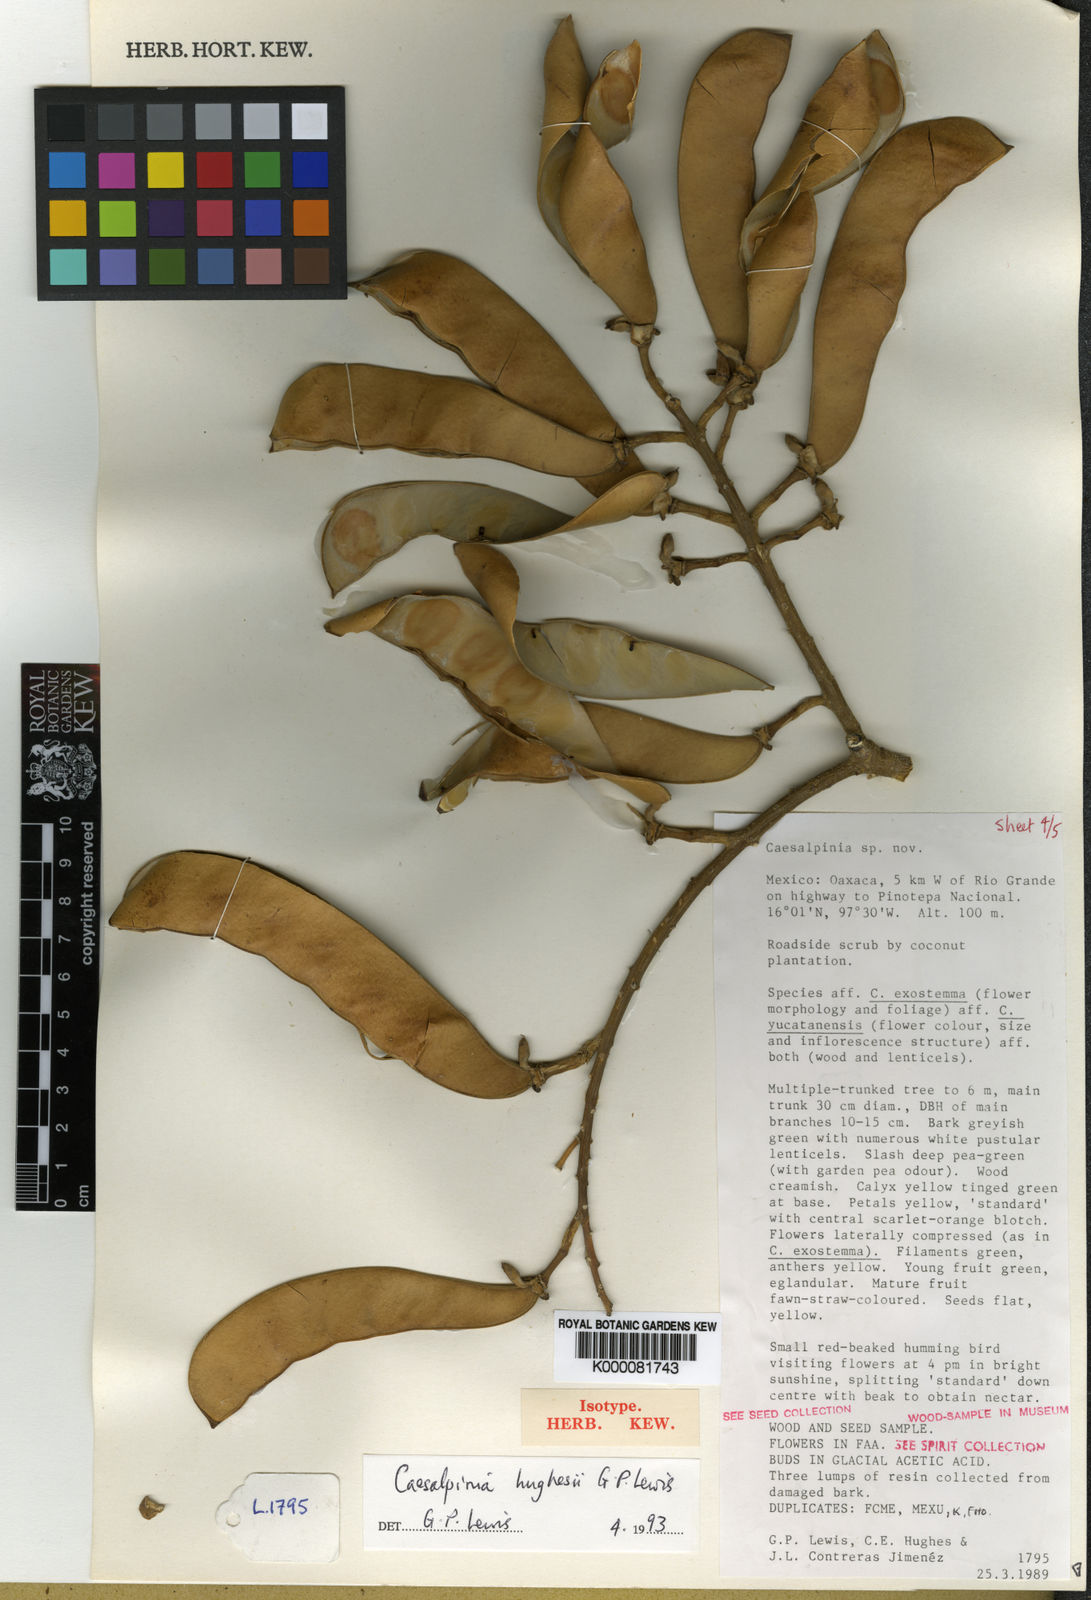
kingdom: Plantae
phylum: Tracheophyta
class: Magnoliopsida
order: Fabales
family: Fabaceae
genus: Erythrostemon
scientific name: Erythrostemon hughesii
